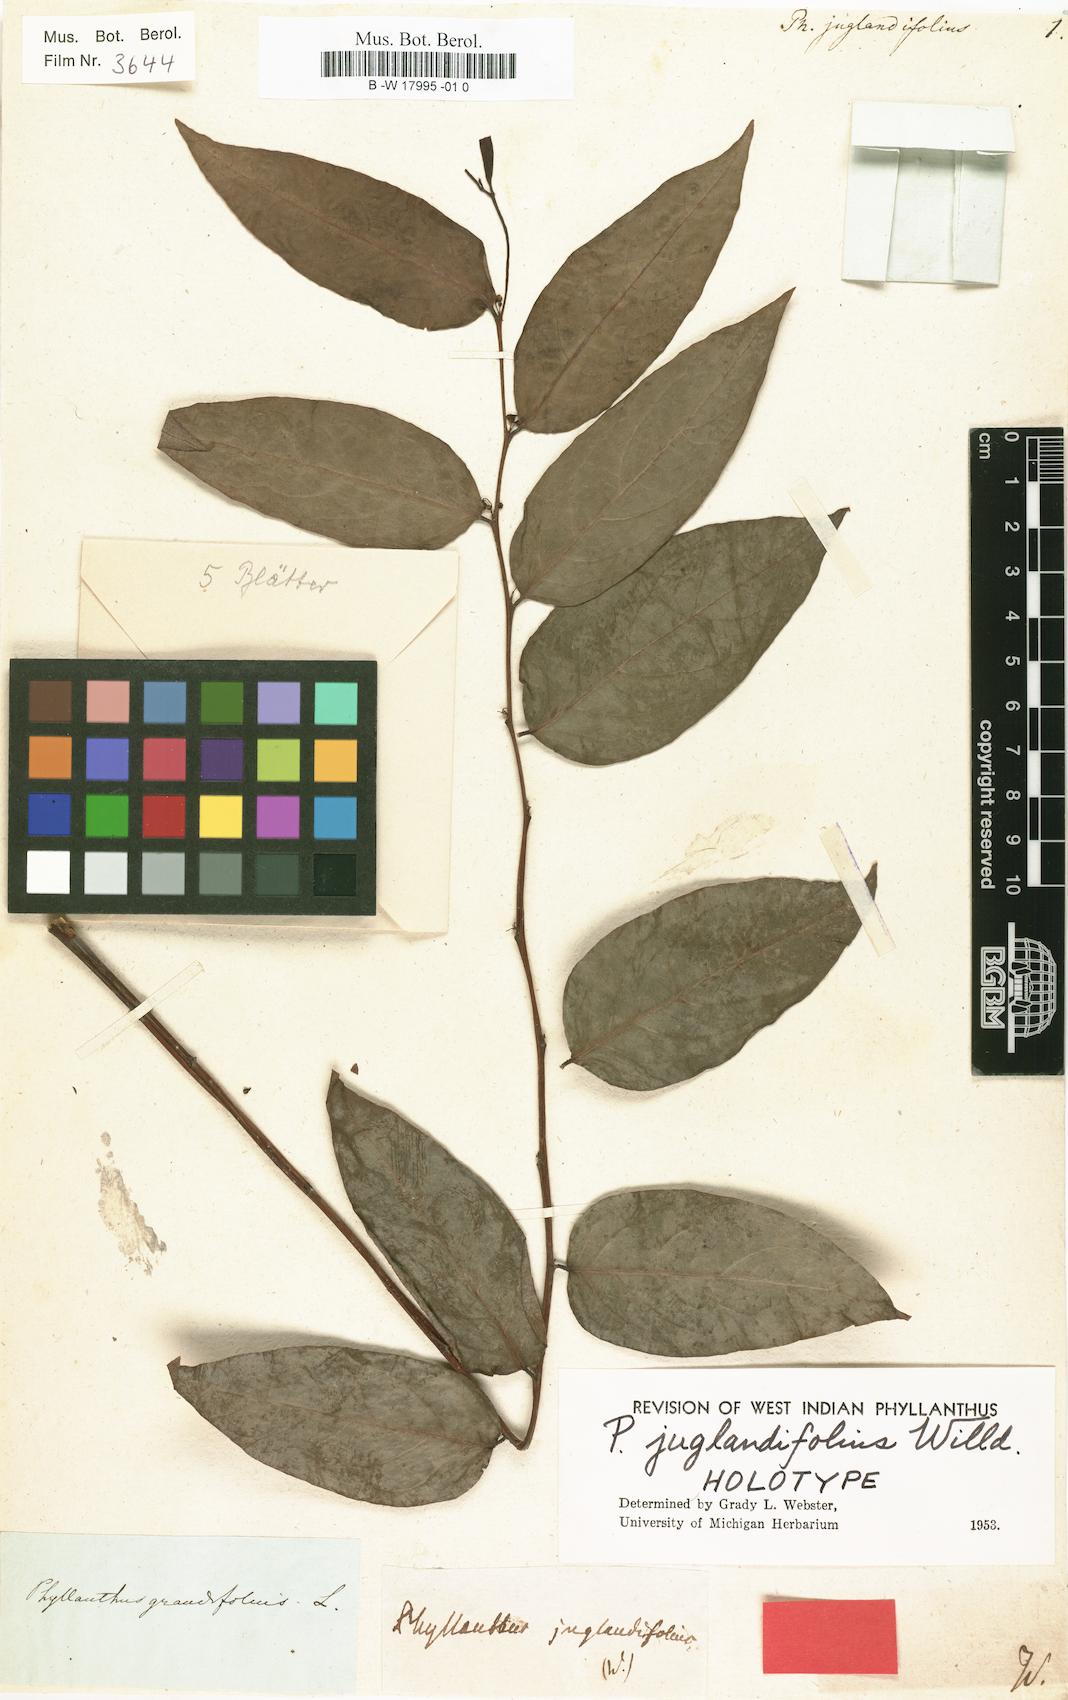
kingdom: Plantae
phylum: Tracheophyta
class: Magnoliopsida
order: Malpighiales
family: Phyllanthaceae
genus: Phyllanthus
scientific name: Phyllanthus juglandifolius
